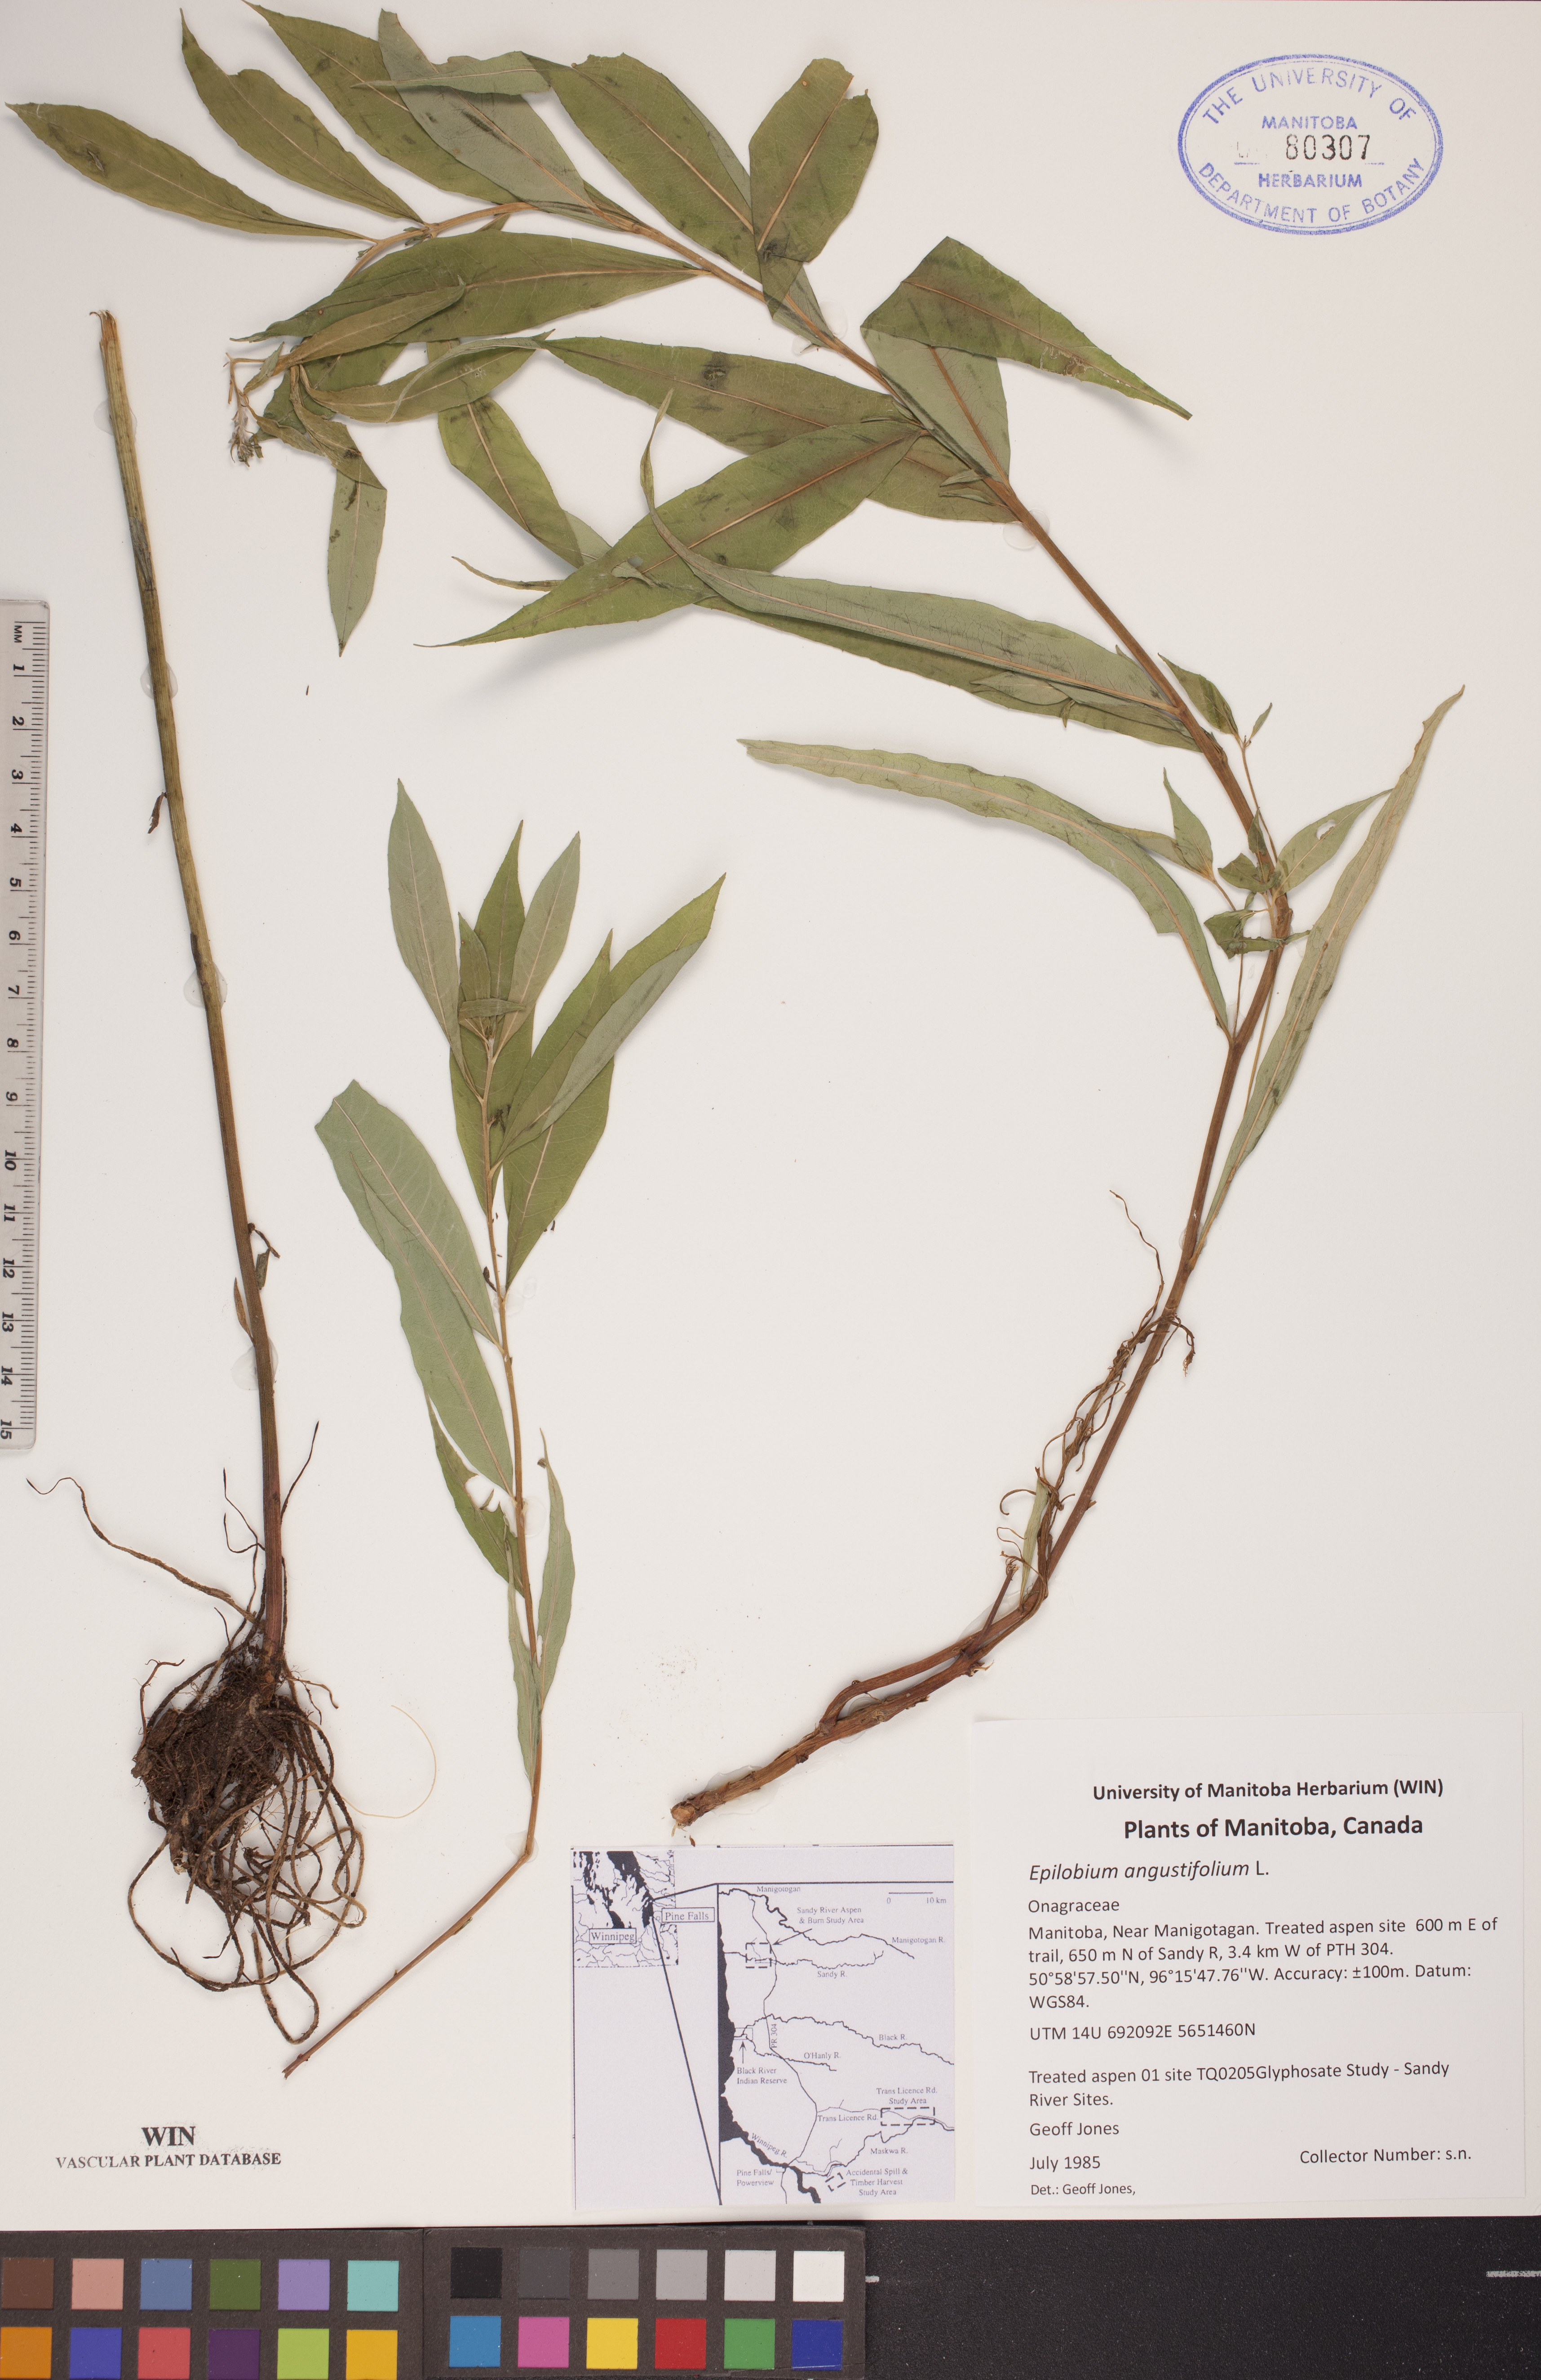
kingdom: Plantae
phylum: Tracheophyta
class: Magnoliopsida
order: Myrtales
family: Onagraceae
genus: Chamaenerion
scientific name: Chamaenerion angustifolium
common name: Fireweed
